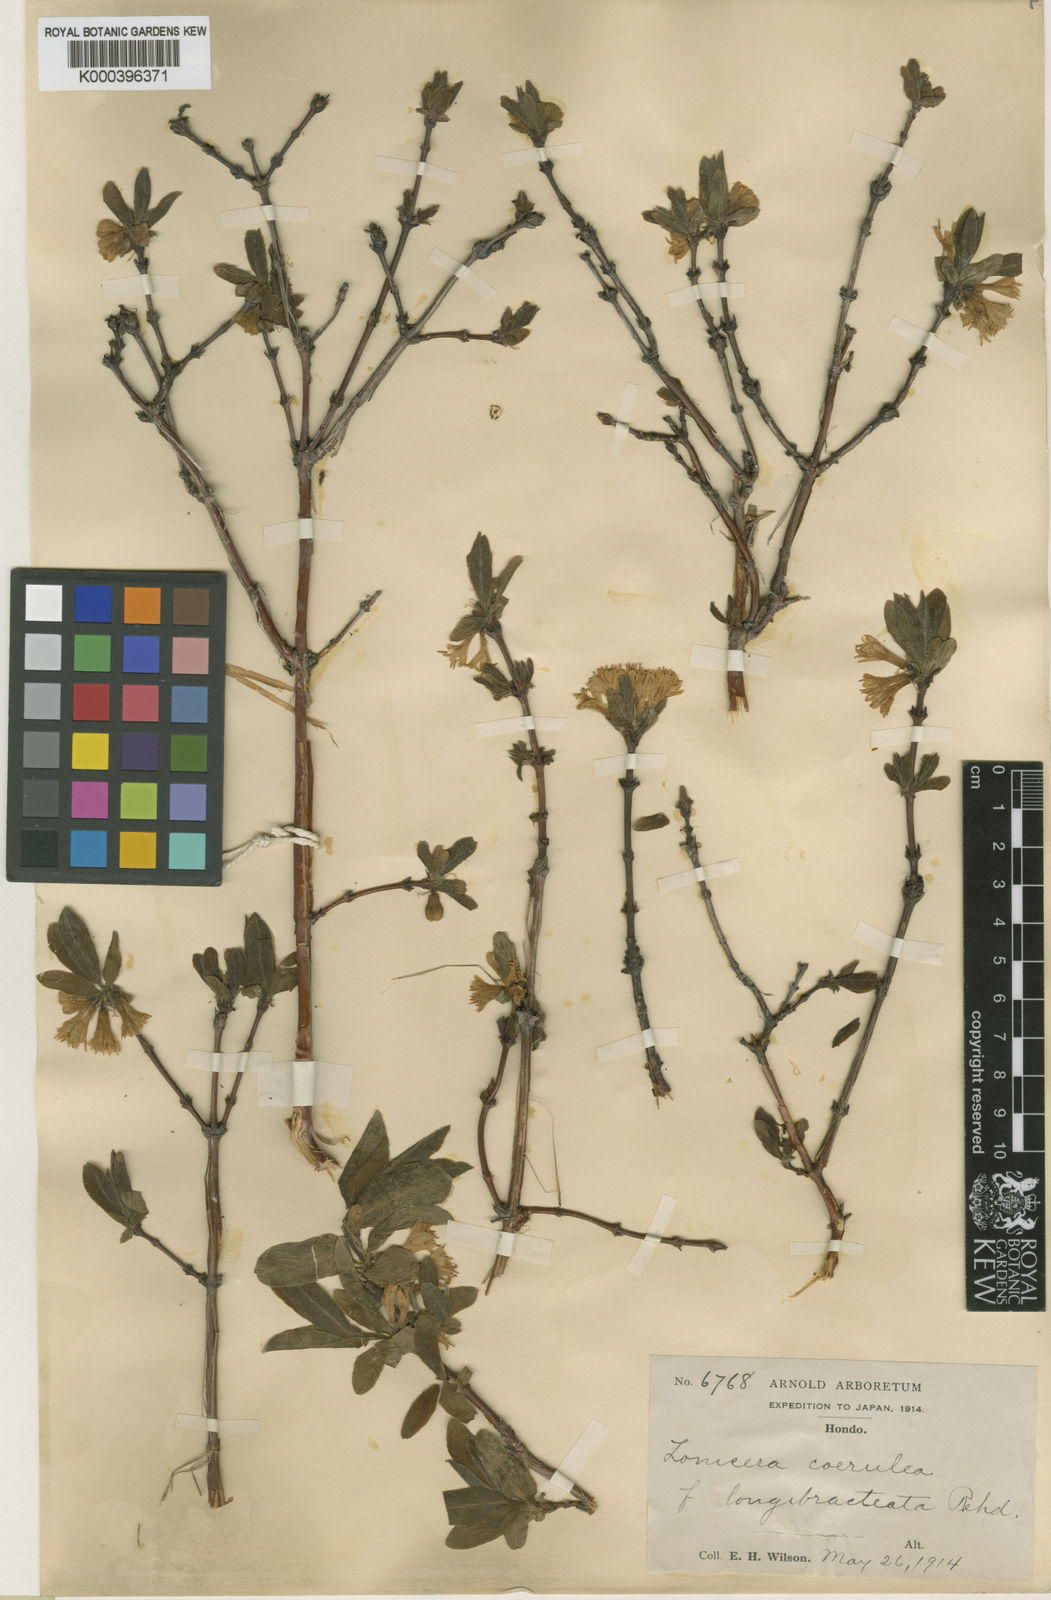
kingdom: Plantae
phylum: Tracheophyta
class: Magnoliopsida
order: Dipsacales
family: Caprifoliaceae
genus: Lonicera
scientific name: Lonicera
